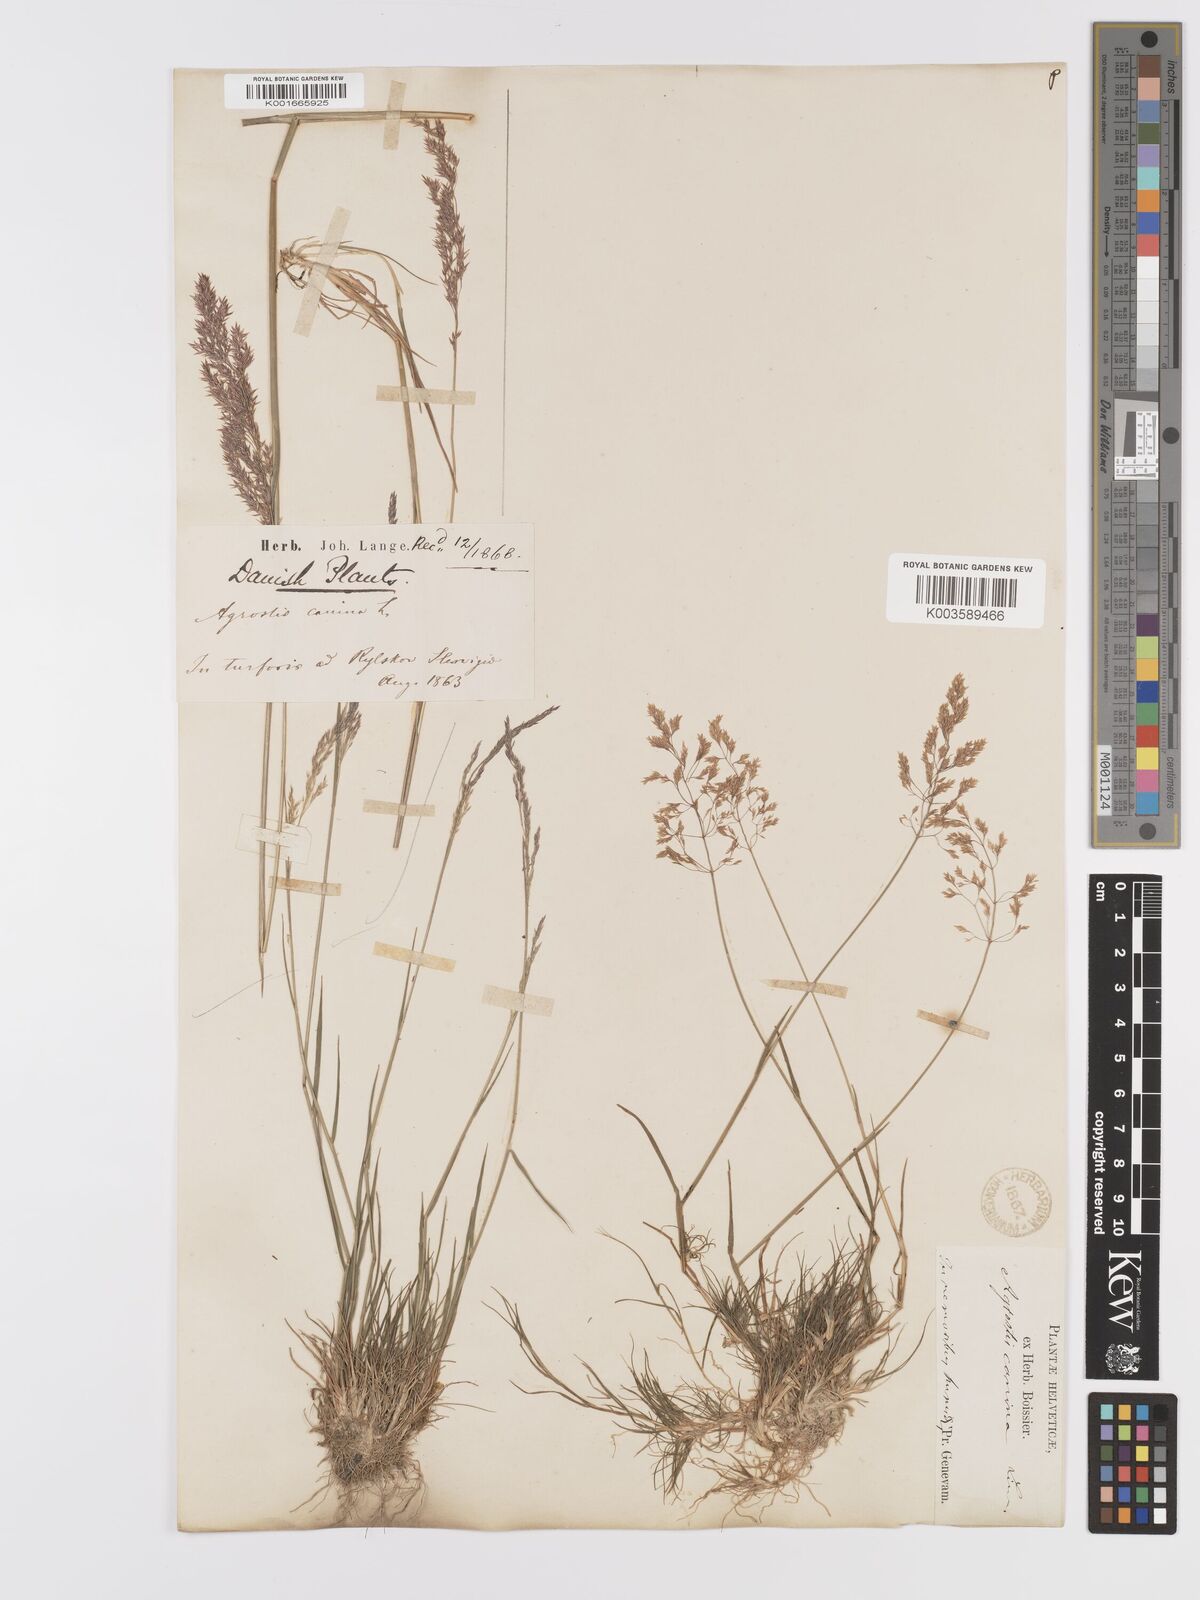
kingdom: Plantae
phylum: Tracheophyta
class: Liliopsida
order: Poales
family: Poaceae
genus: Agrostis
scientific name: Agrostis canina
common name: Velvet bent
